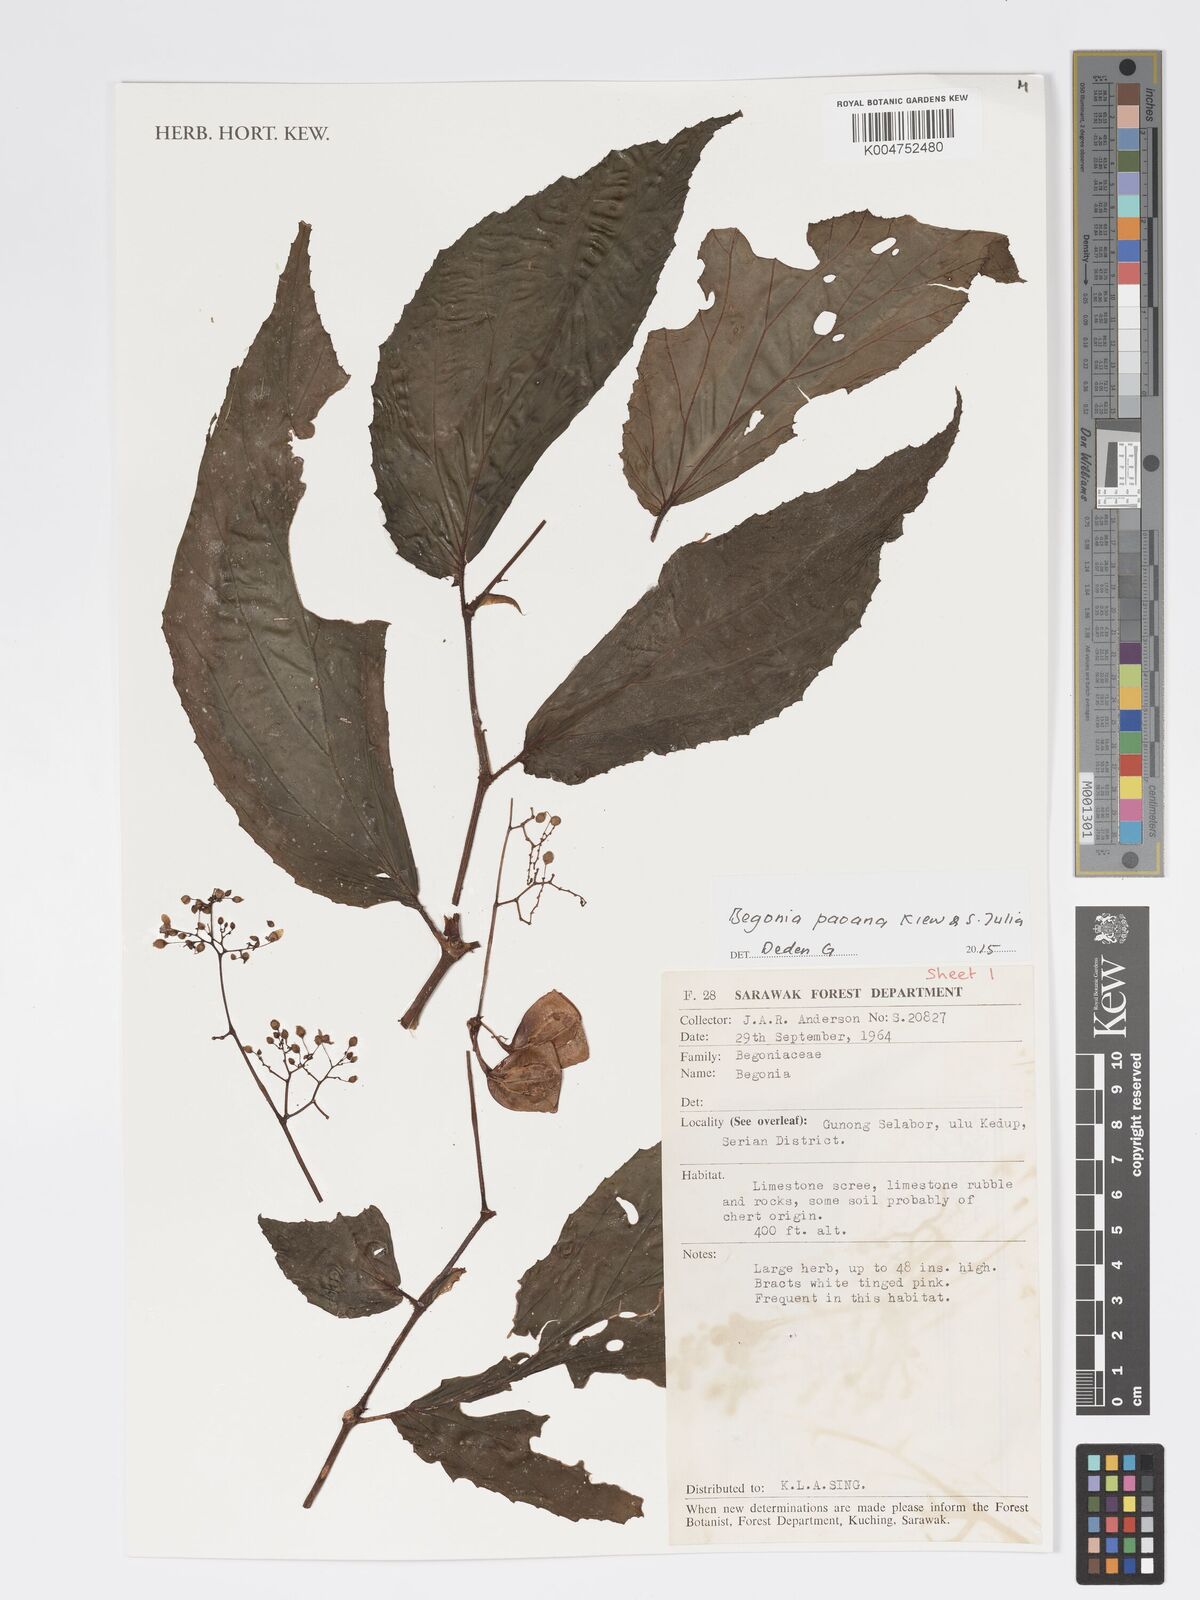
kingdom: Plantae
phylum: Tracheophyta
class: Magnoliopsida
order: Cucurbitales
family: Begoniaceae
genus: Begonia
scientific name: Begonia paoana
